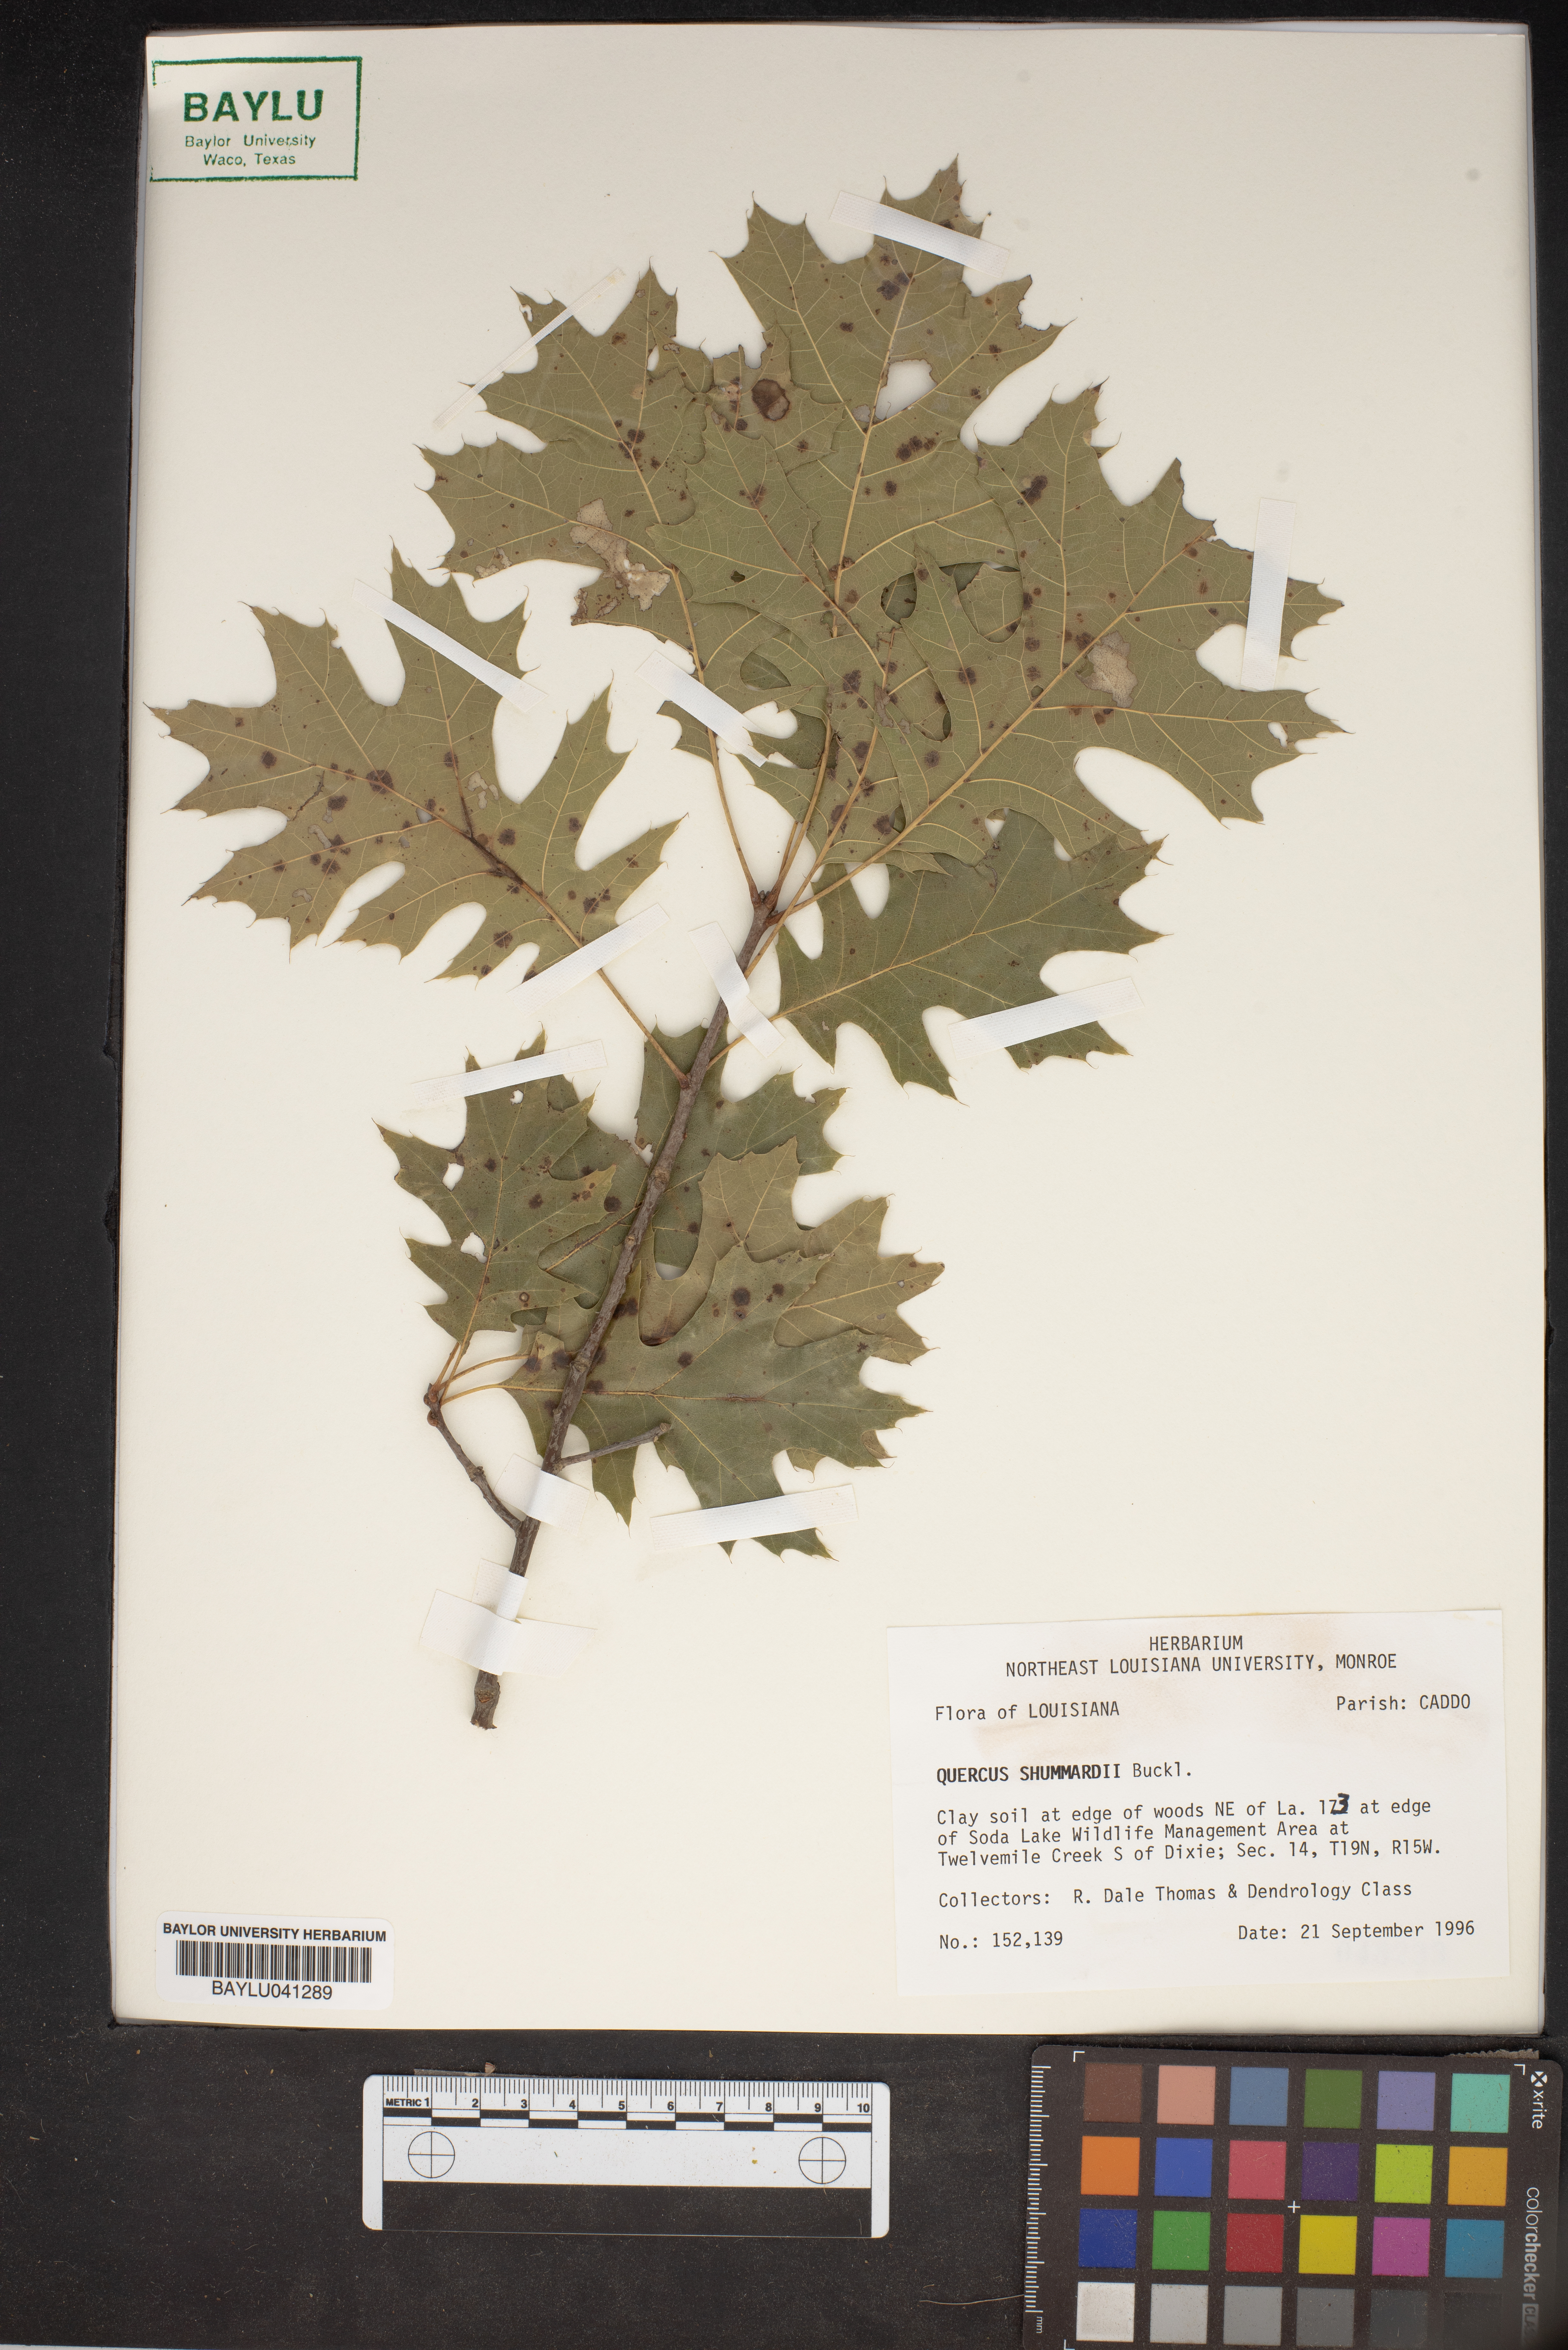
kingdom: Plantae
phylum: Tracheophyta
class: Magnoliopsida
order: Fagales
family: Fagaceae
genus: Quercus
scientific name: Quercus shumardii
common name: Shumard oak
